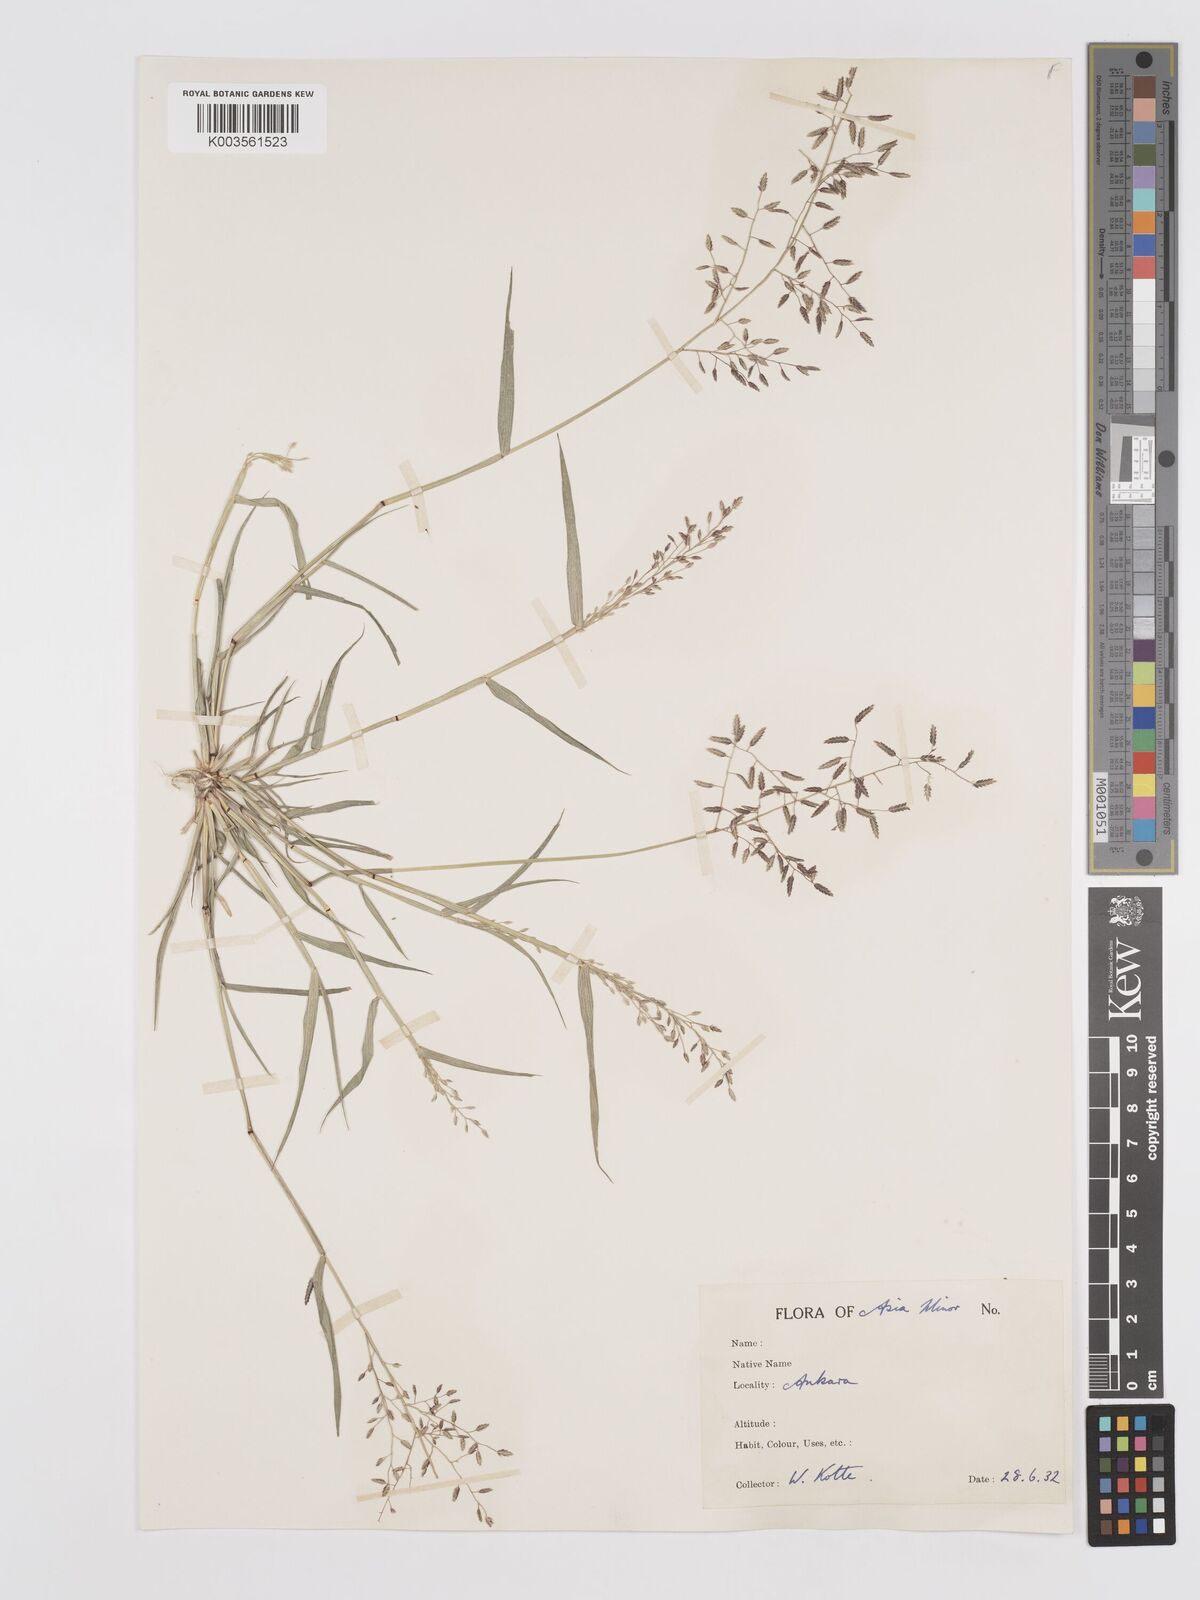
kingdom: Plantae
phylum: Tracheophyta
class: Liliopsida
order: Poales
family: Poaceae
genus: Eragrostis
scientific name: Eragrostis minor
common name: Small love-grass
